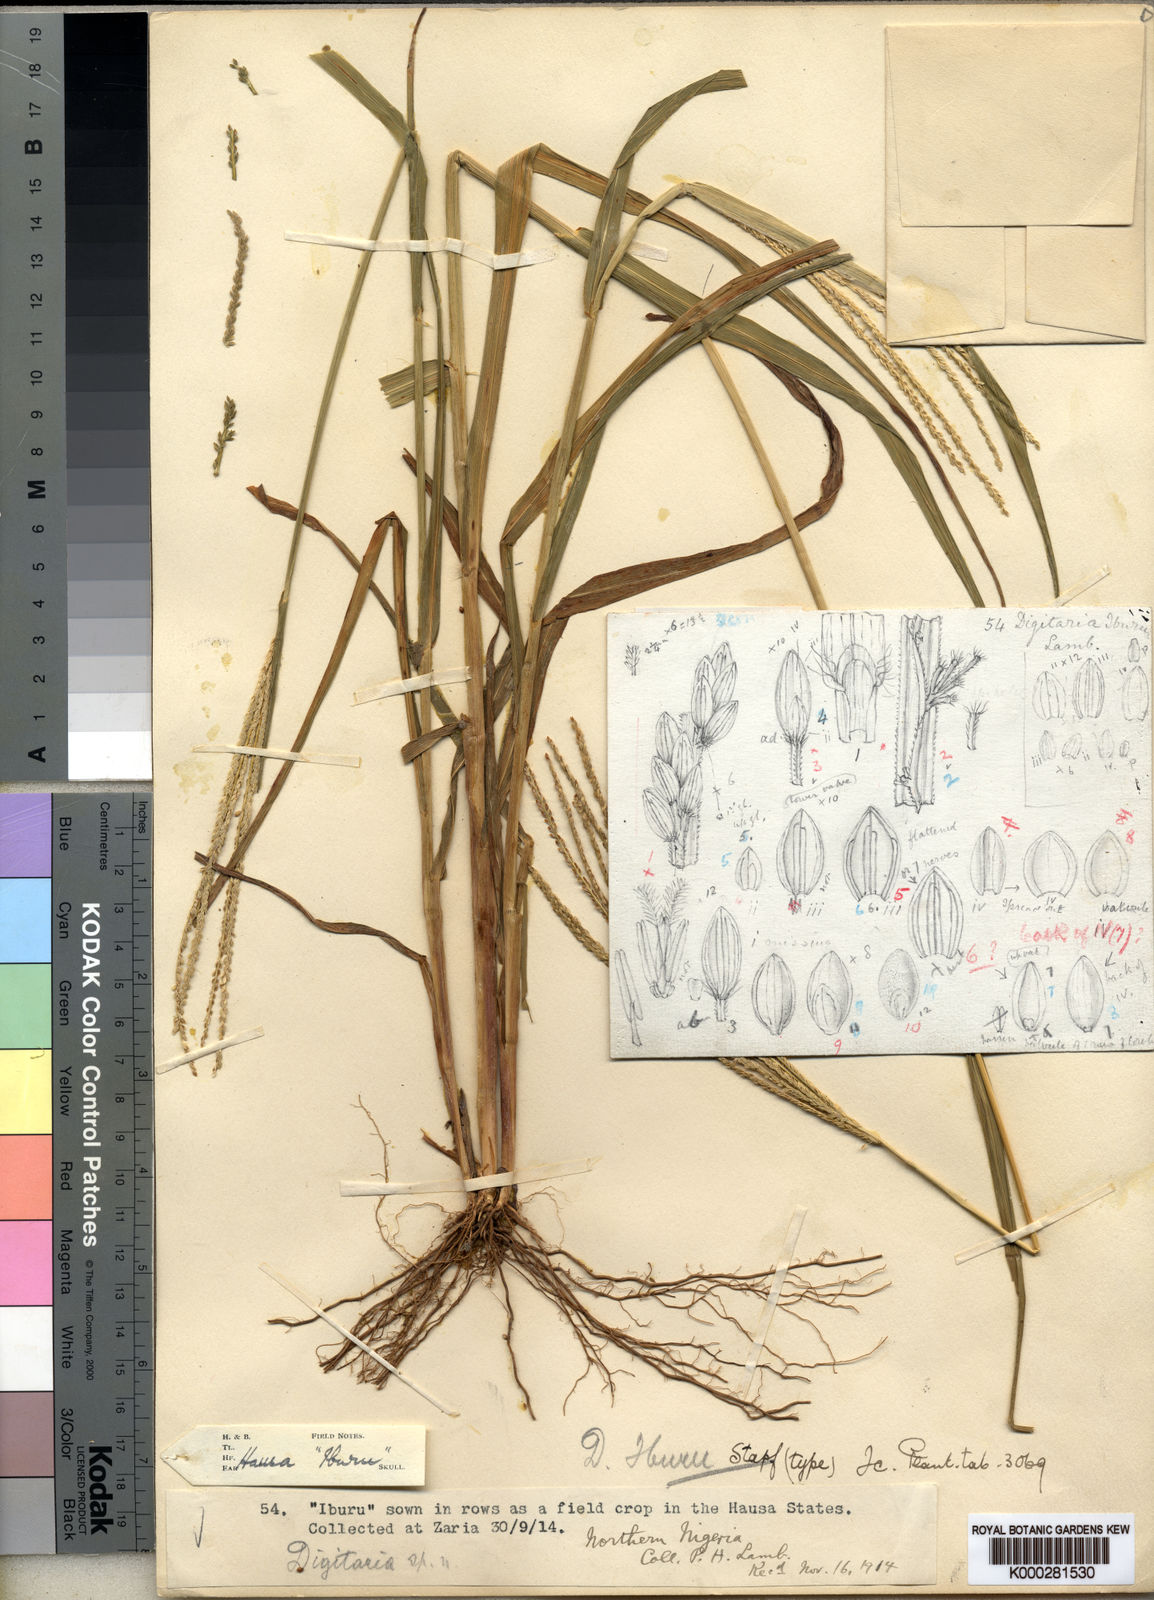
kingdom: Plantae
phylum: Tracheophyta
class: Liliopsida
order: Poales
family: Poaceae
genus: Digitaria
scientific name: Digitaria iburua
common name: Black acha
